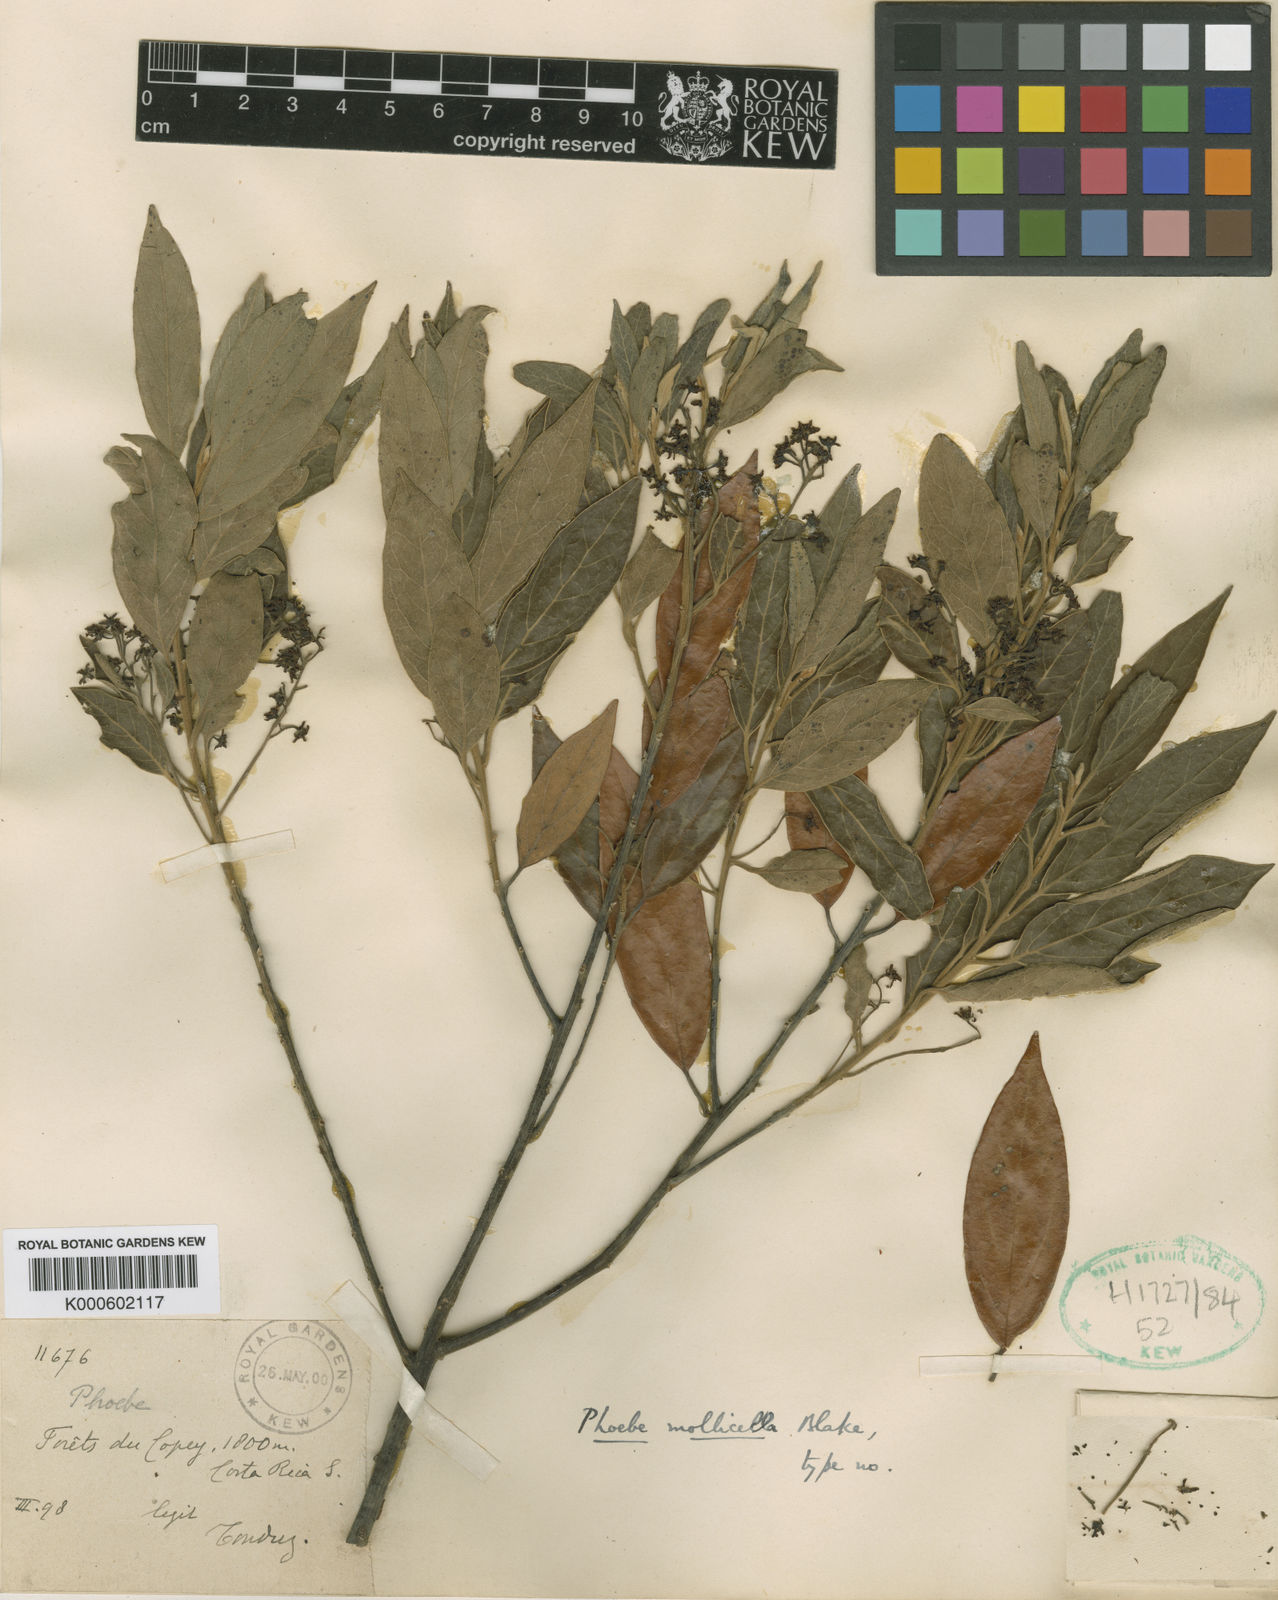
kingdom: Plantae
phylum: Tracheophyta
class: Magnoliopsida
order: Laurales
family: Lauraceae
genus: Ocotea
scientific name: Ocotea mollicella
